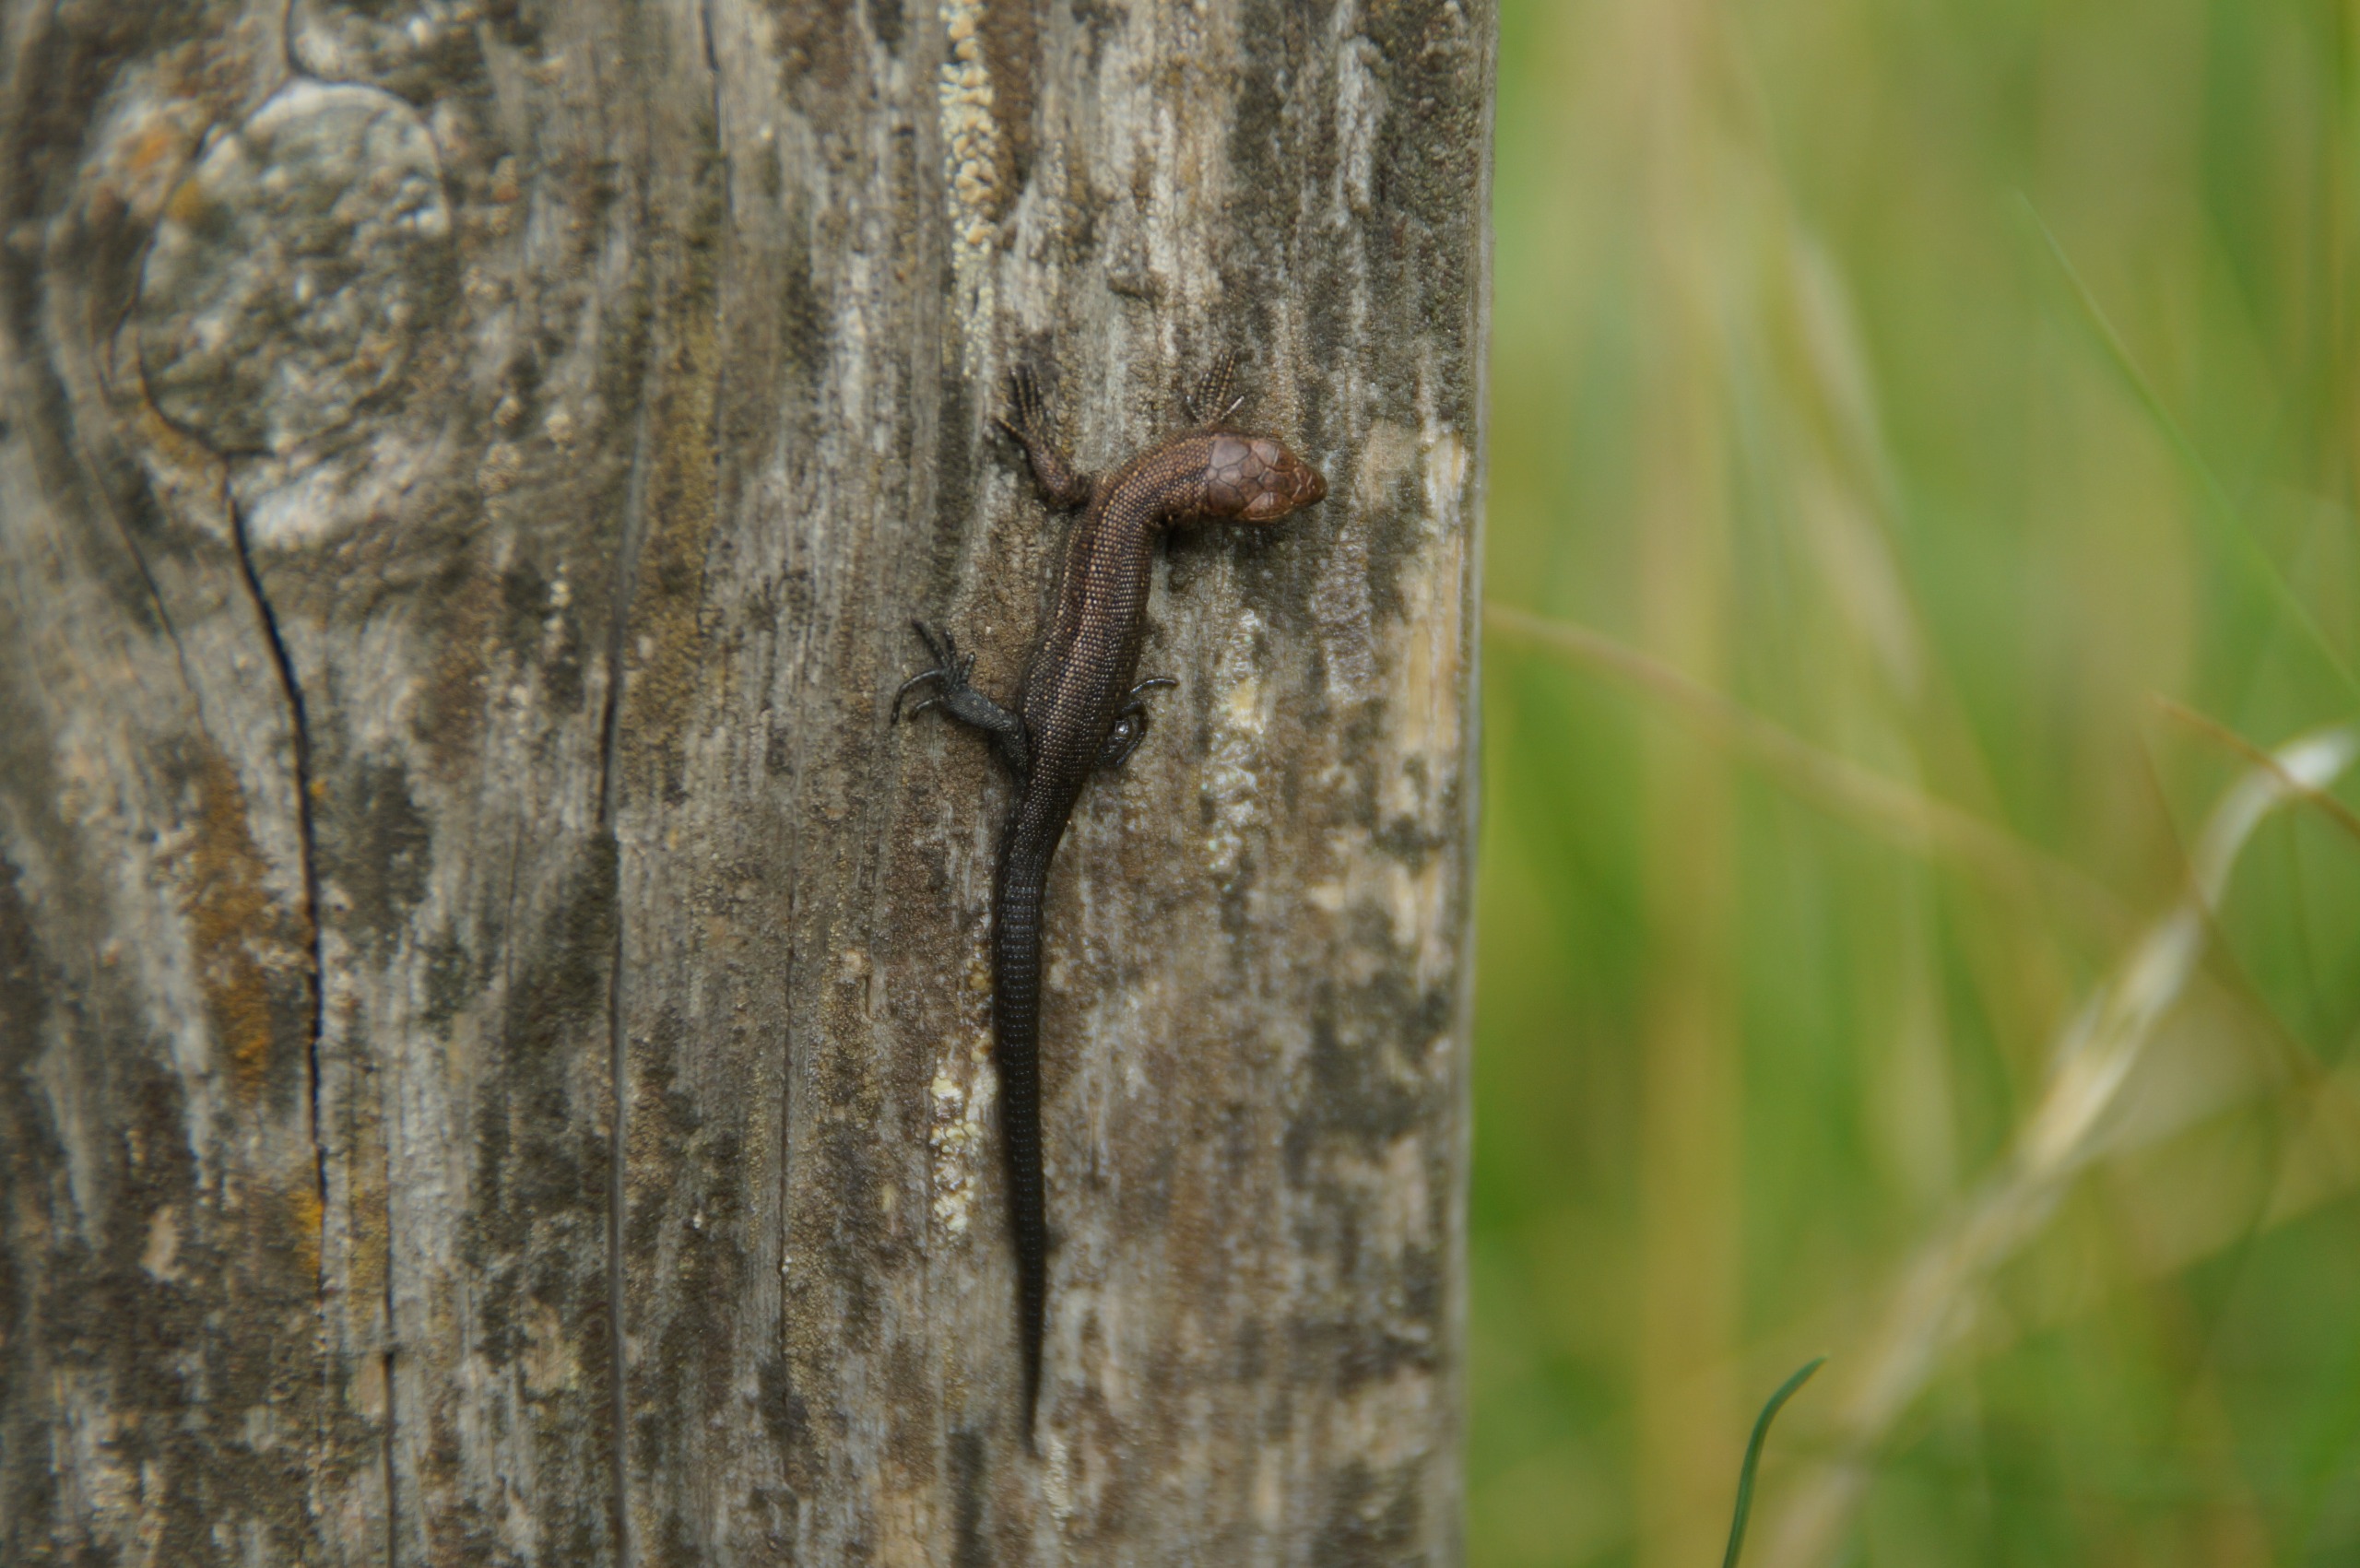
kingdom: Animalia
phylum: Chordata
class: Squamata
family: Lacertidae
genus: Zootoca
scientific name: Zootoca vivipara
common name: Skovfirben
